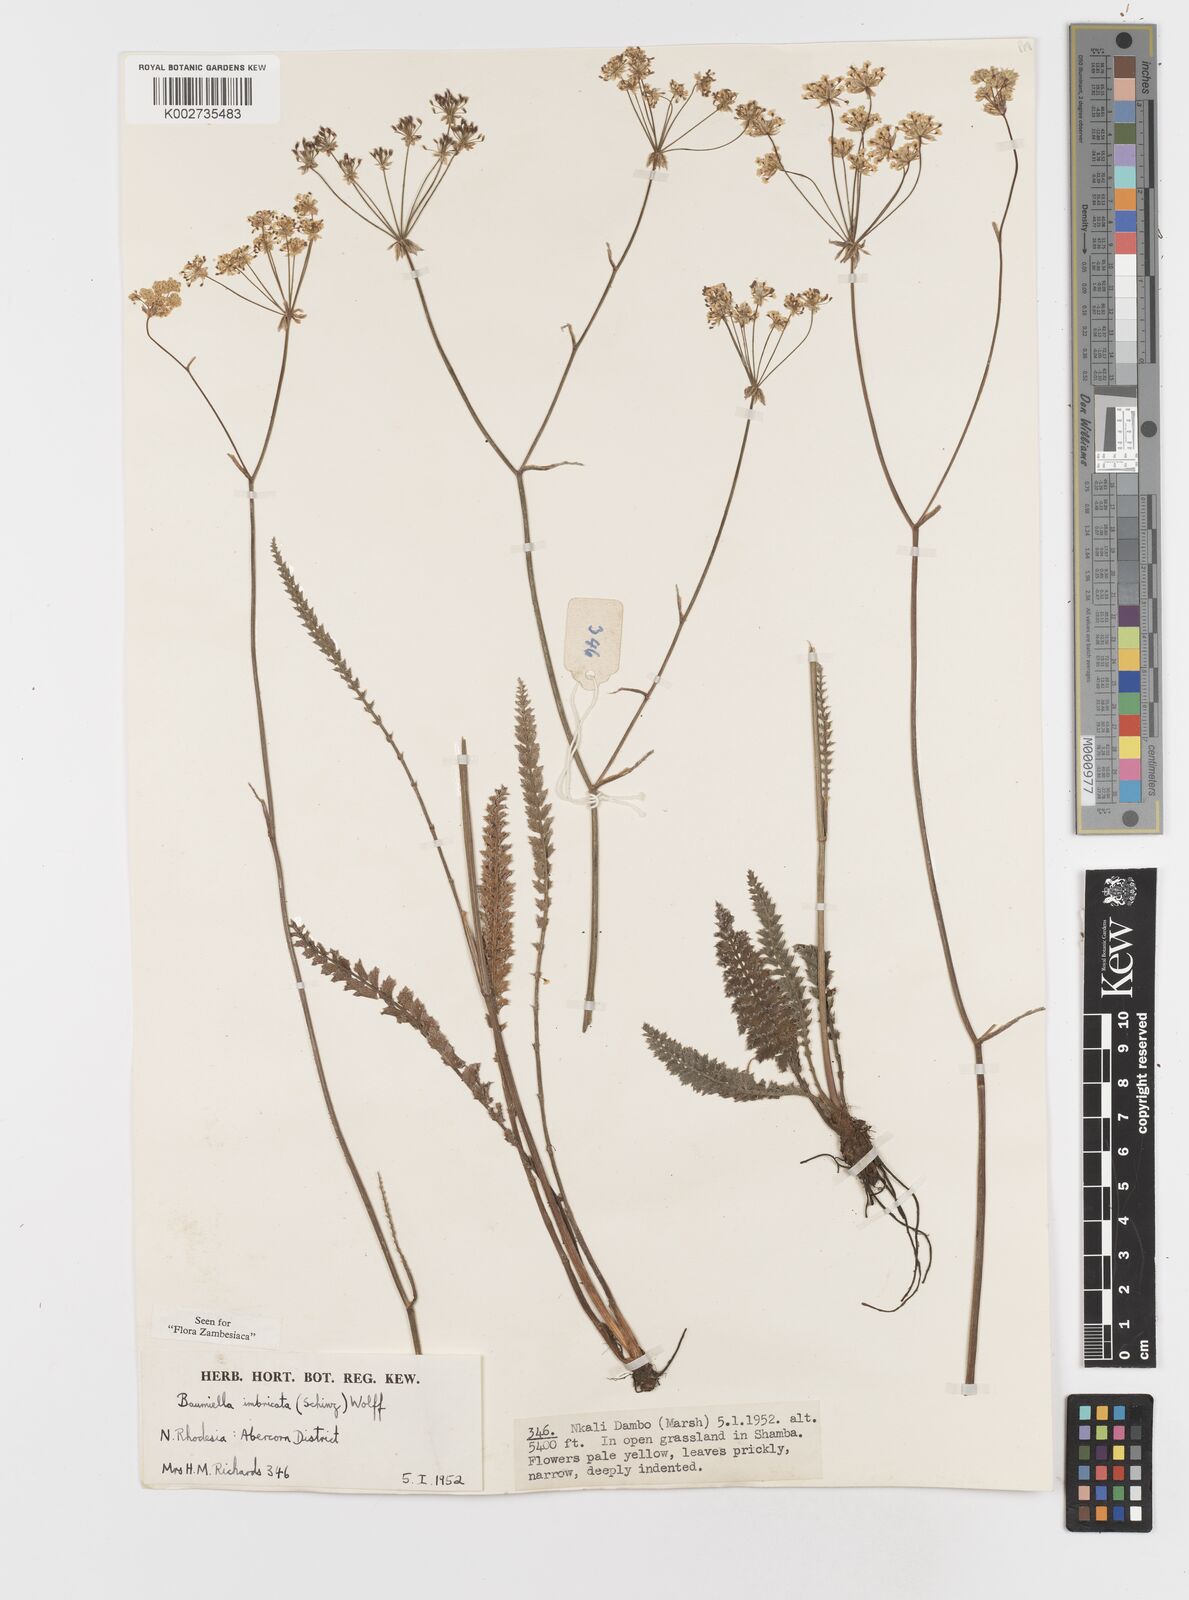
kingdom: Plantae
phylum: Tracheophyta
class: Magnoliopsida
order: Apiales
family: Apiaceae
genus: Berula
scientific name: Berula imbricata
